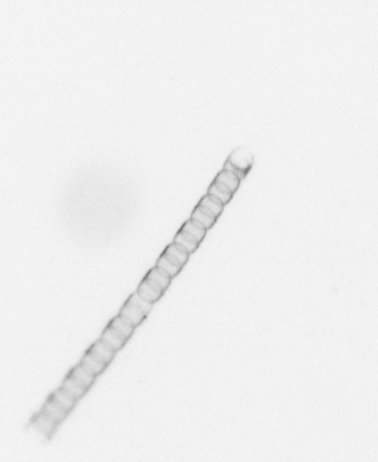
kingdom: Chromista
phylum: Ochrophyta
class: Bacillariophyceae
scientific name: Bacillariophyceae
